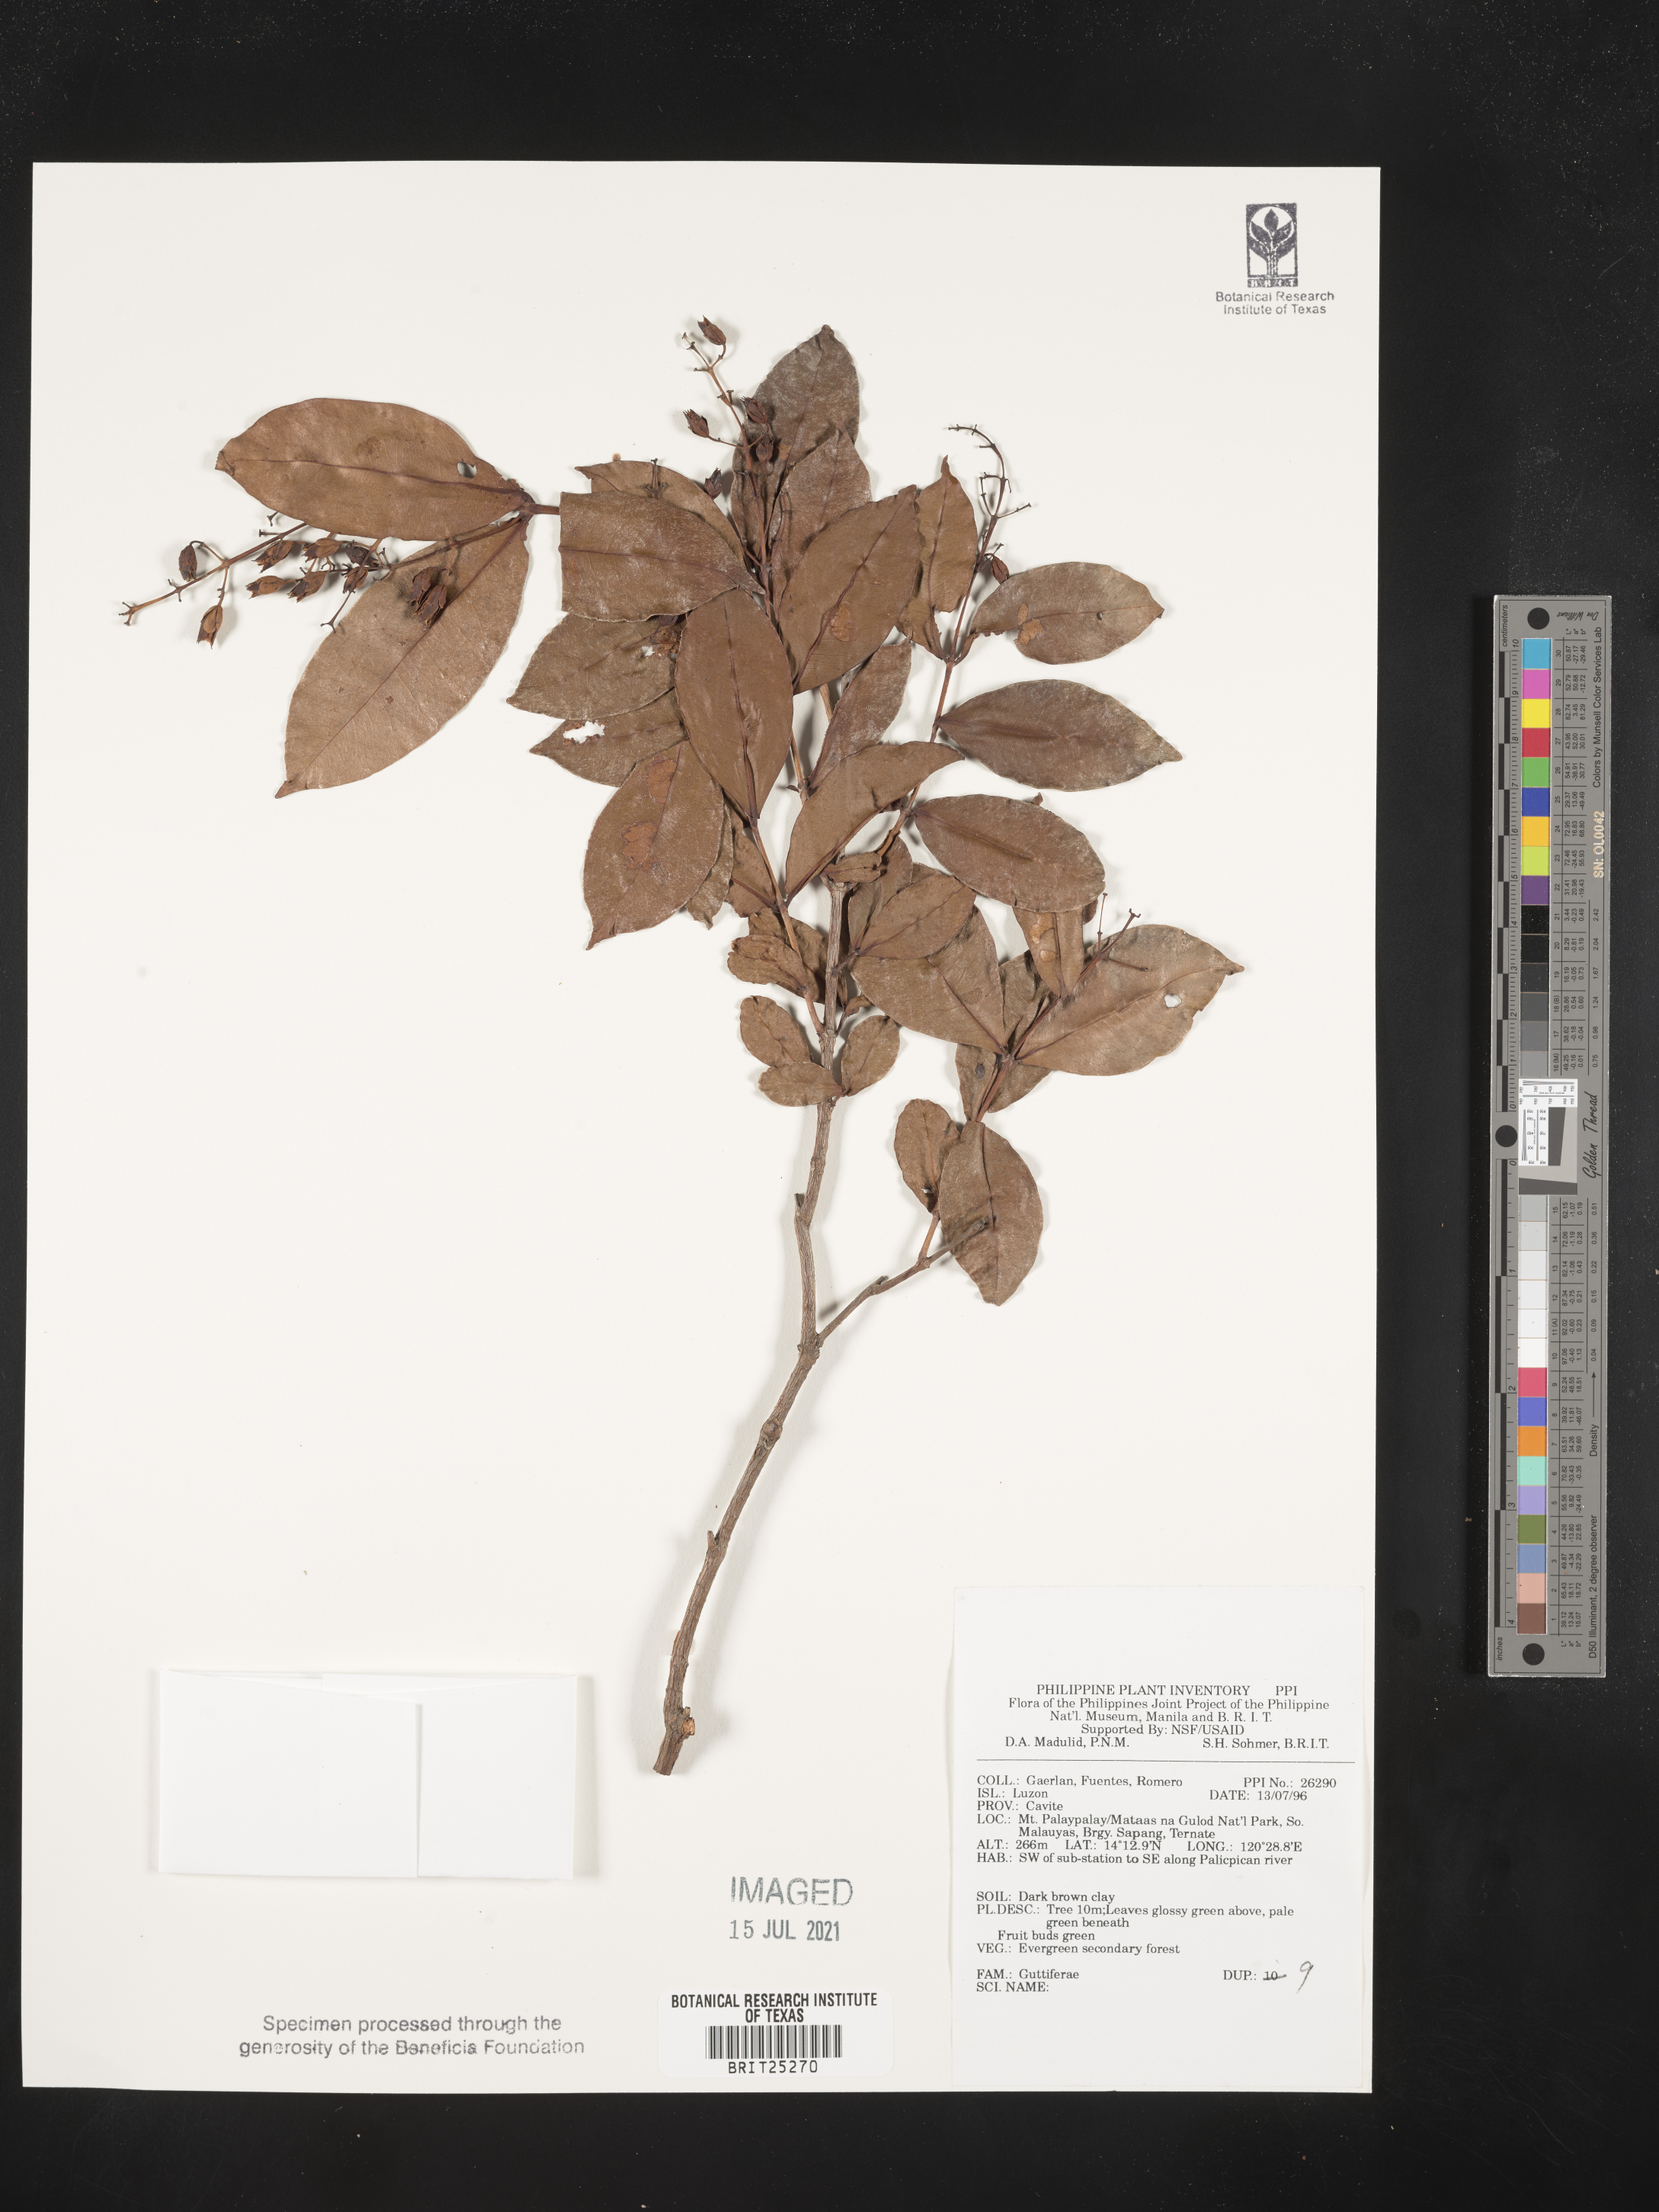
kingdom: Plantae
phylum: Tracheophyta
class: Magnoliopsida
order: Malpighiales
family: Hypericaceae
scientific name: Hypericaceae
